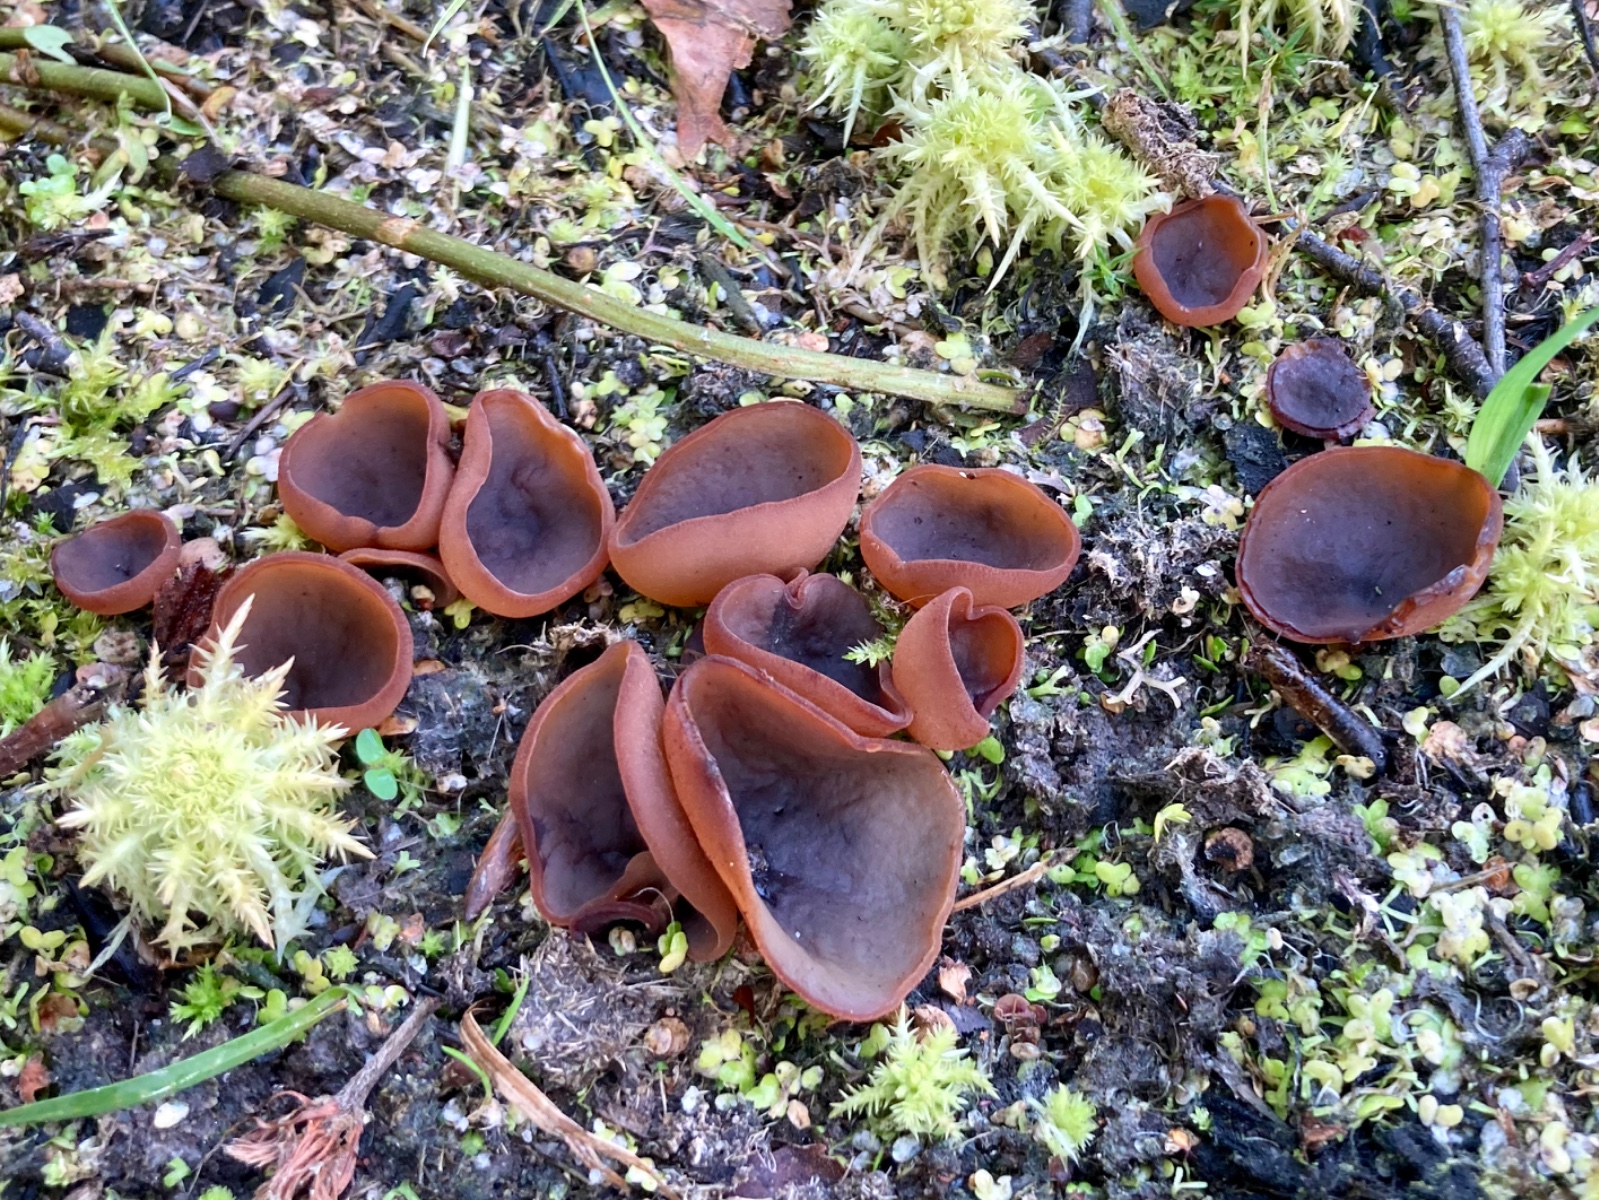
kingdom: Fungi
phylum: Ascomycota
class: Pezizomycetes
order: Pezizales
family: Pezizaceae
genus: Legaliana
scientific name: Legaliana limnaea
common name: mose-bægersvamp
